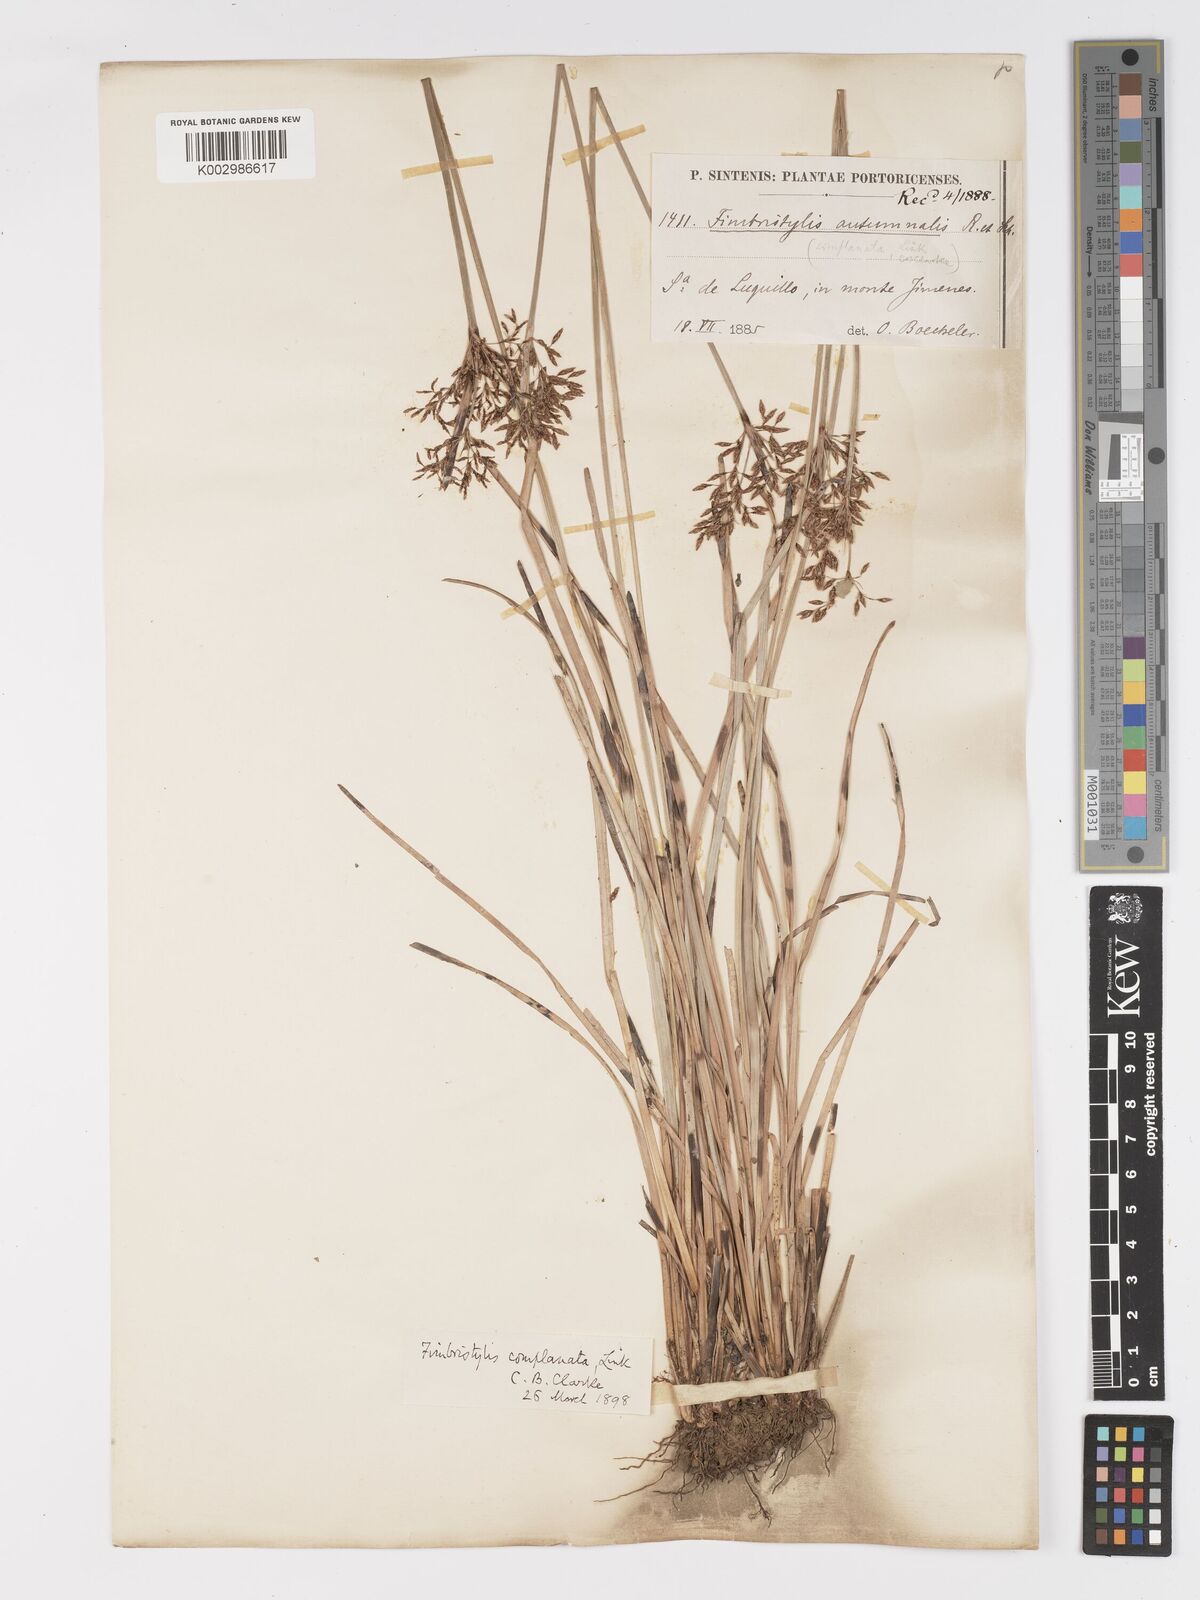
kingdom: Plantae
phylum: Tracheophyta
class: Liliopsida
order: Poales
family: Cyperaceae
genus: Fimbristylis
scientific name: Fimbristylis complanata
